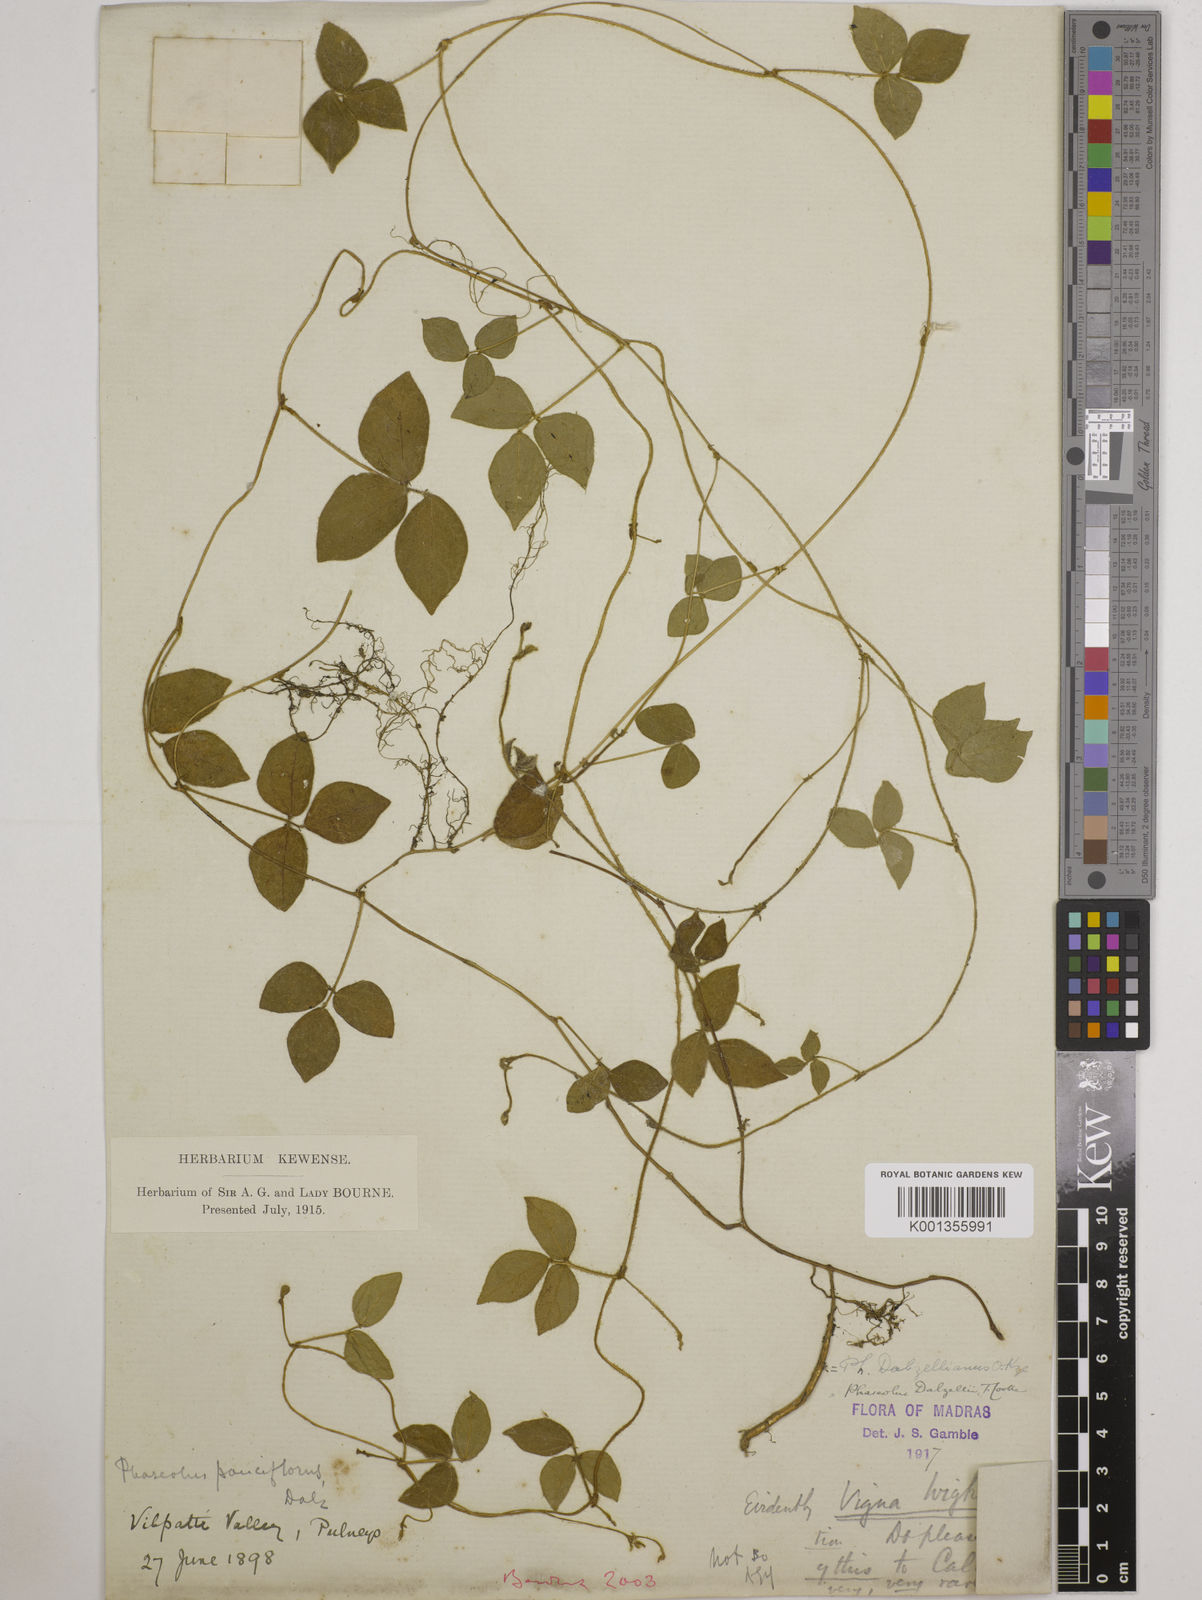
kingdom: Plantae
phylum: Tracheophyta
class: Magnoliopsida
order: Fabales
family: Fabaceae
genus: Vigna
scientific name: Vigna dalzelliana
